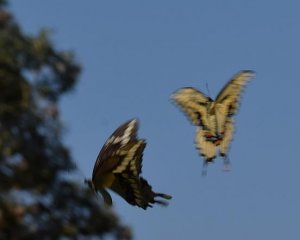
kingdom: Animalia
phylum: Arthropoda
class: Insecta
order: Lepidoptera
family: Papilionidae
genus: Papilio
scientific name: Papilio cresphontes
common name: Eastern Giant Swallowtail
